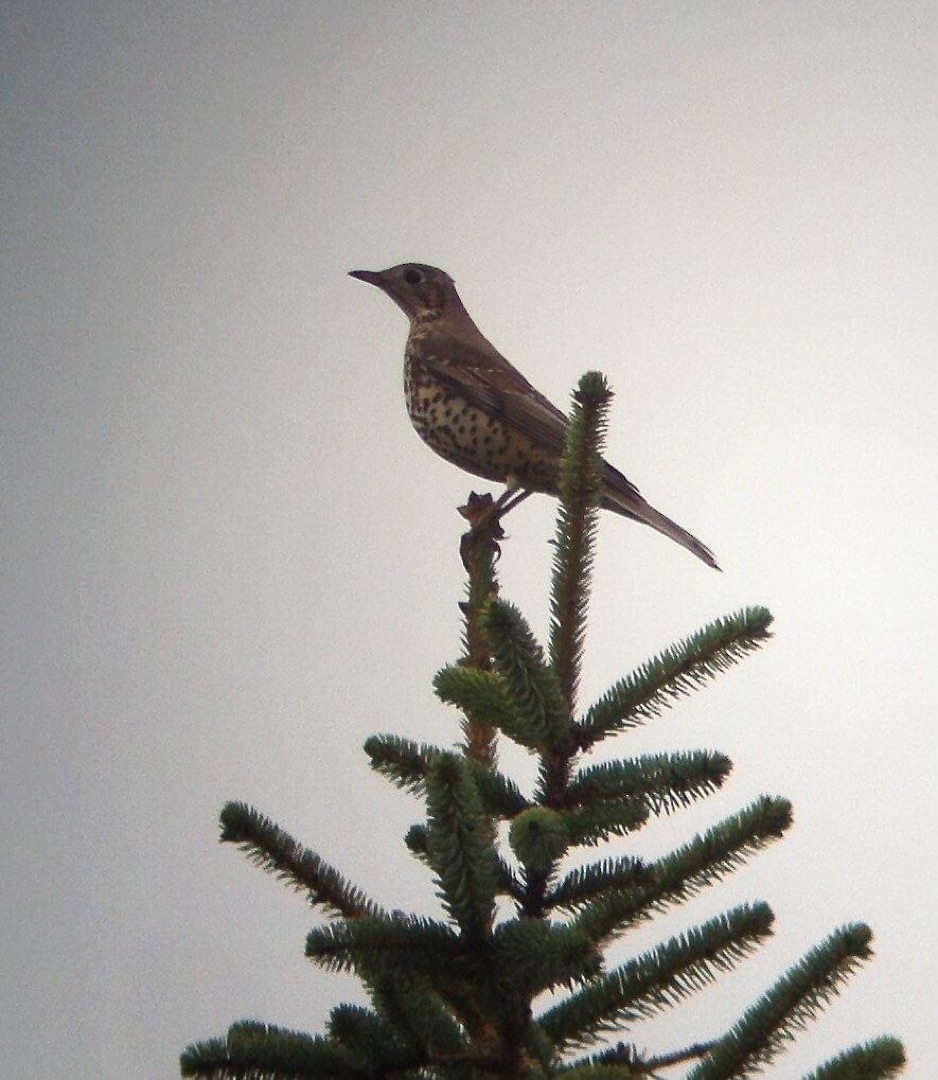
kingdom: Animalia
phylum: Chordata
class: Aves
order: Passeriformes
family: Turdidae
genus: Turdus
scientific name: Turdus viscivorus
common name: Misteldrossel
